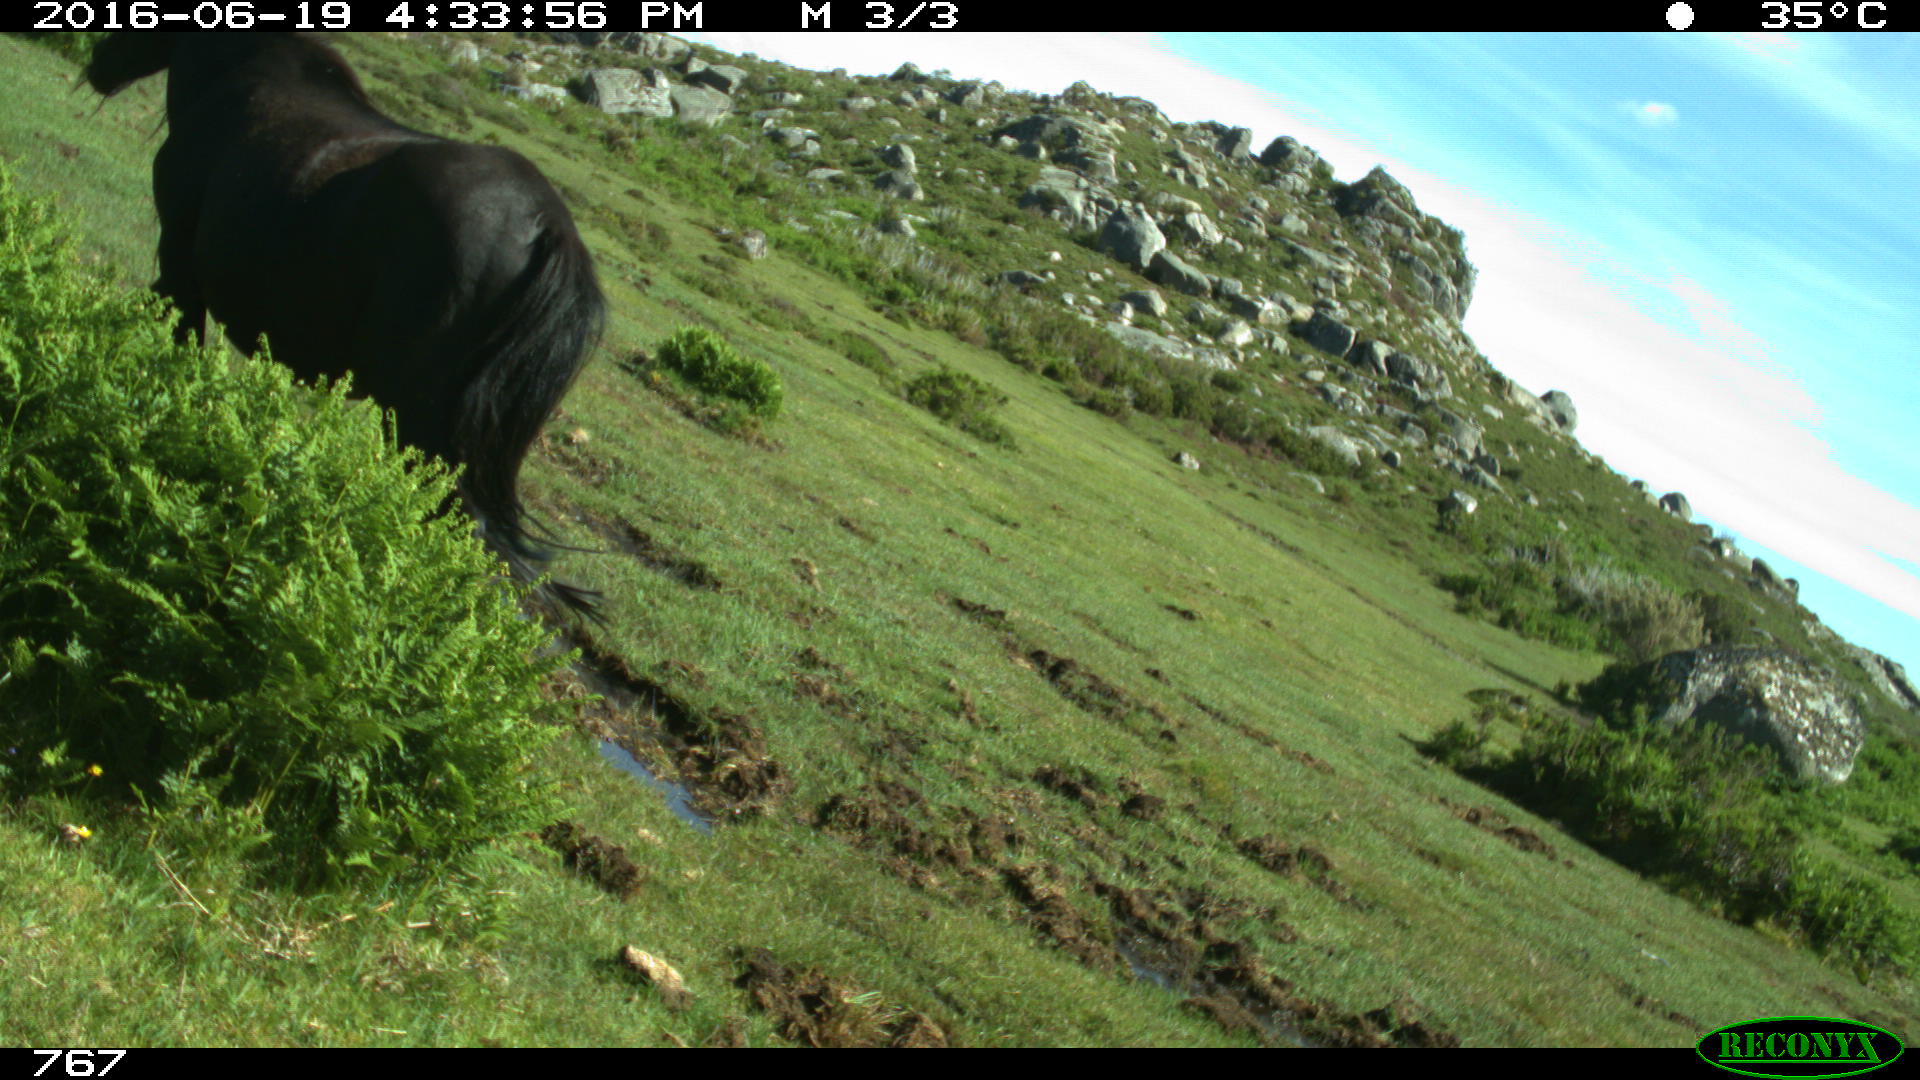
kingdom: Animalia
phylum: Chordata
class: Mammalia
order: Perissodactyla
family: Equidae
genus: Equus
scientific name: Equus caballus
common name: Horse
